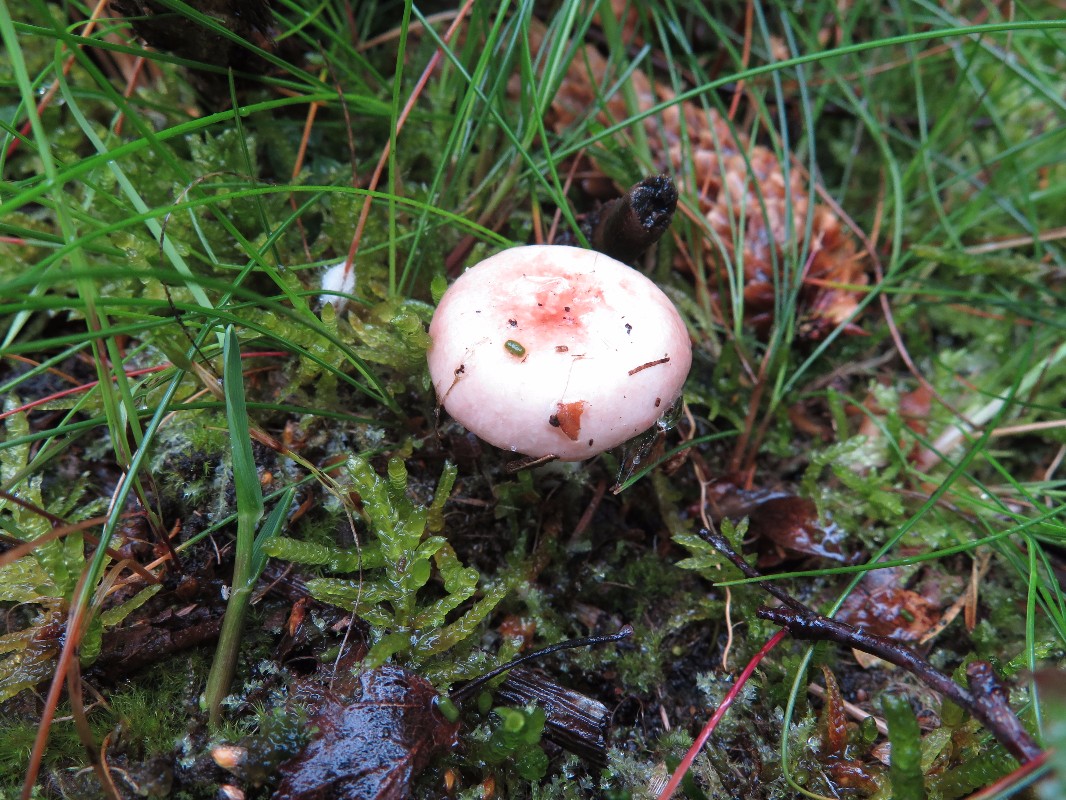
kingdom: Fungi
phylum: Basidiomycota
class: Agaricomycetes
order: Russulales
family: Russulaceae
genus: Russula
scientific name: Russula
